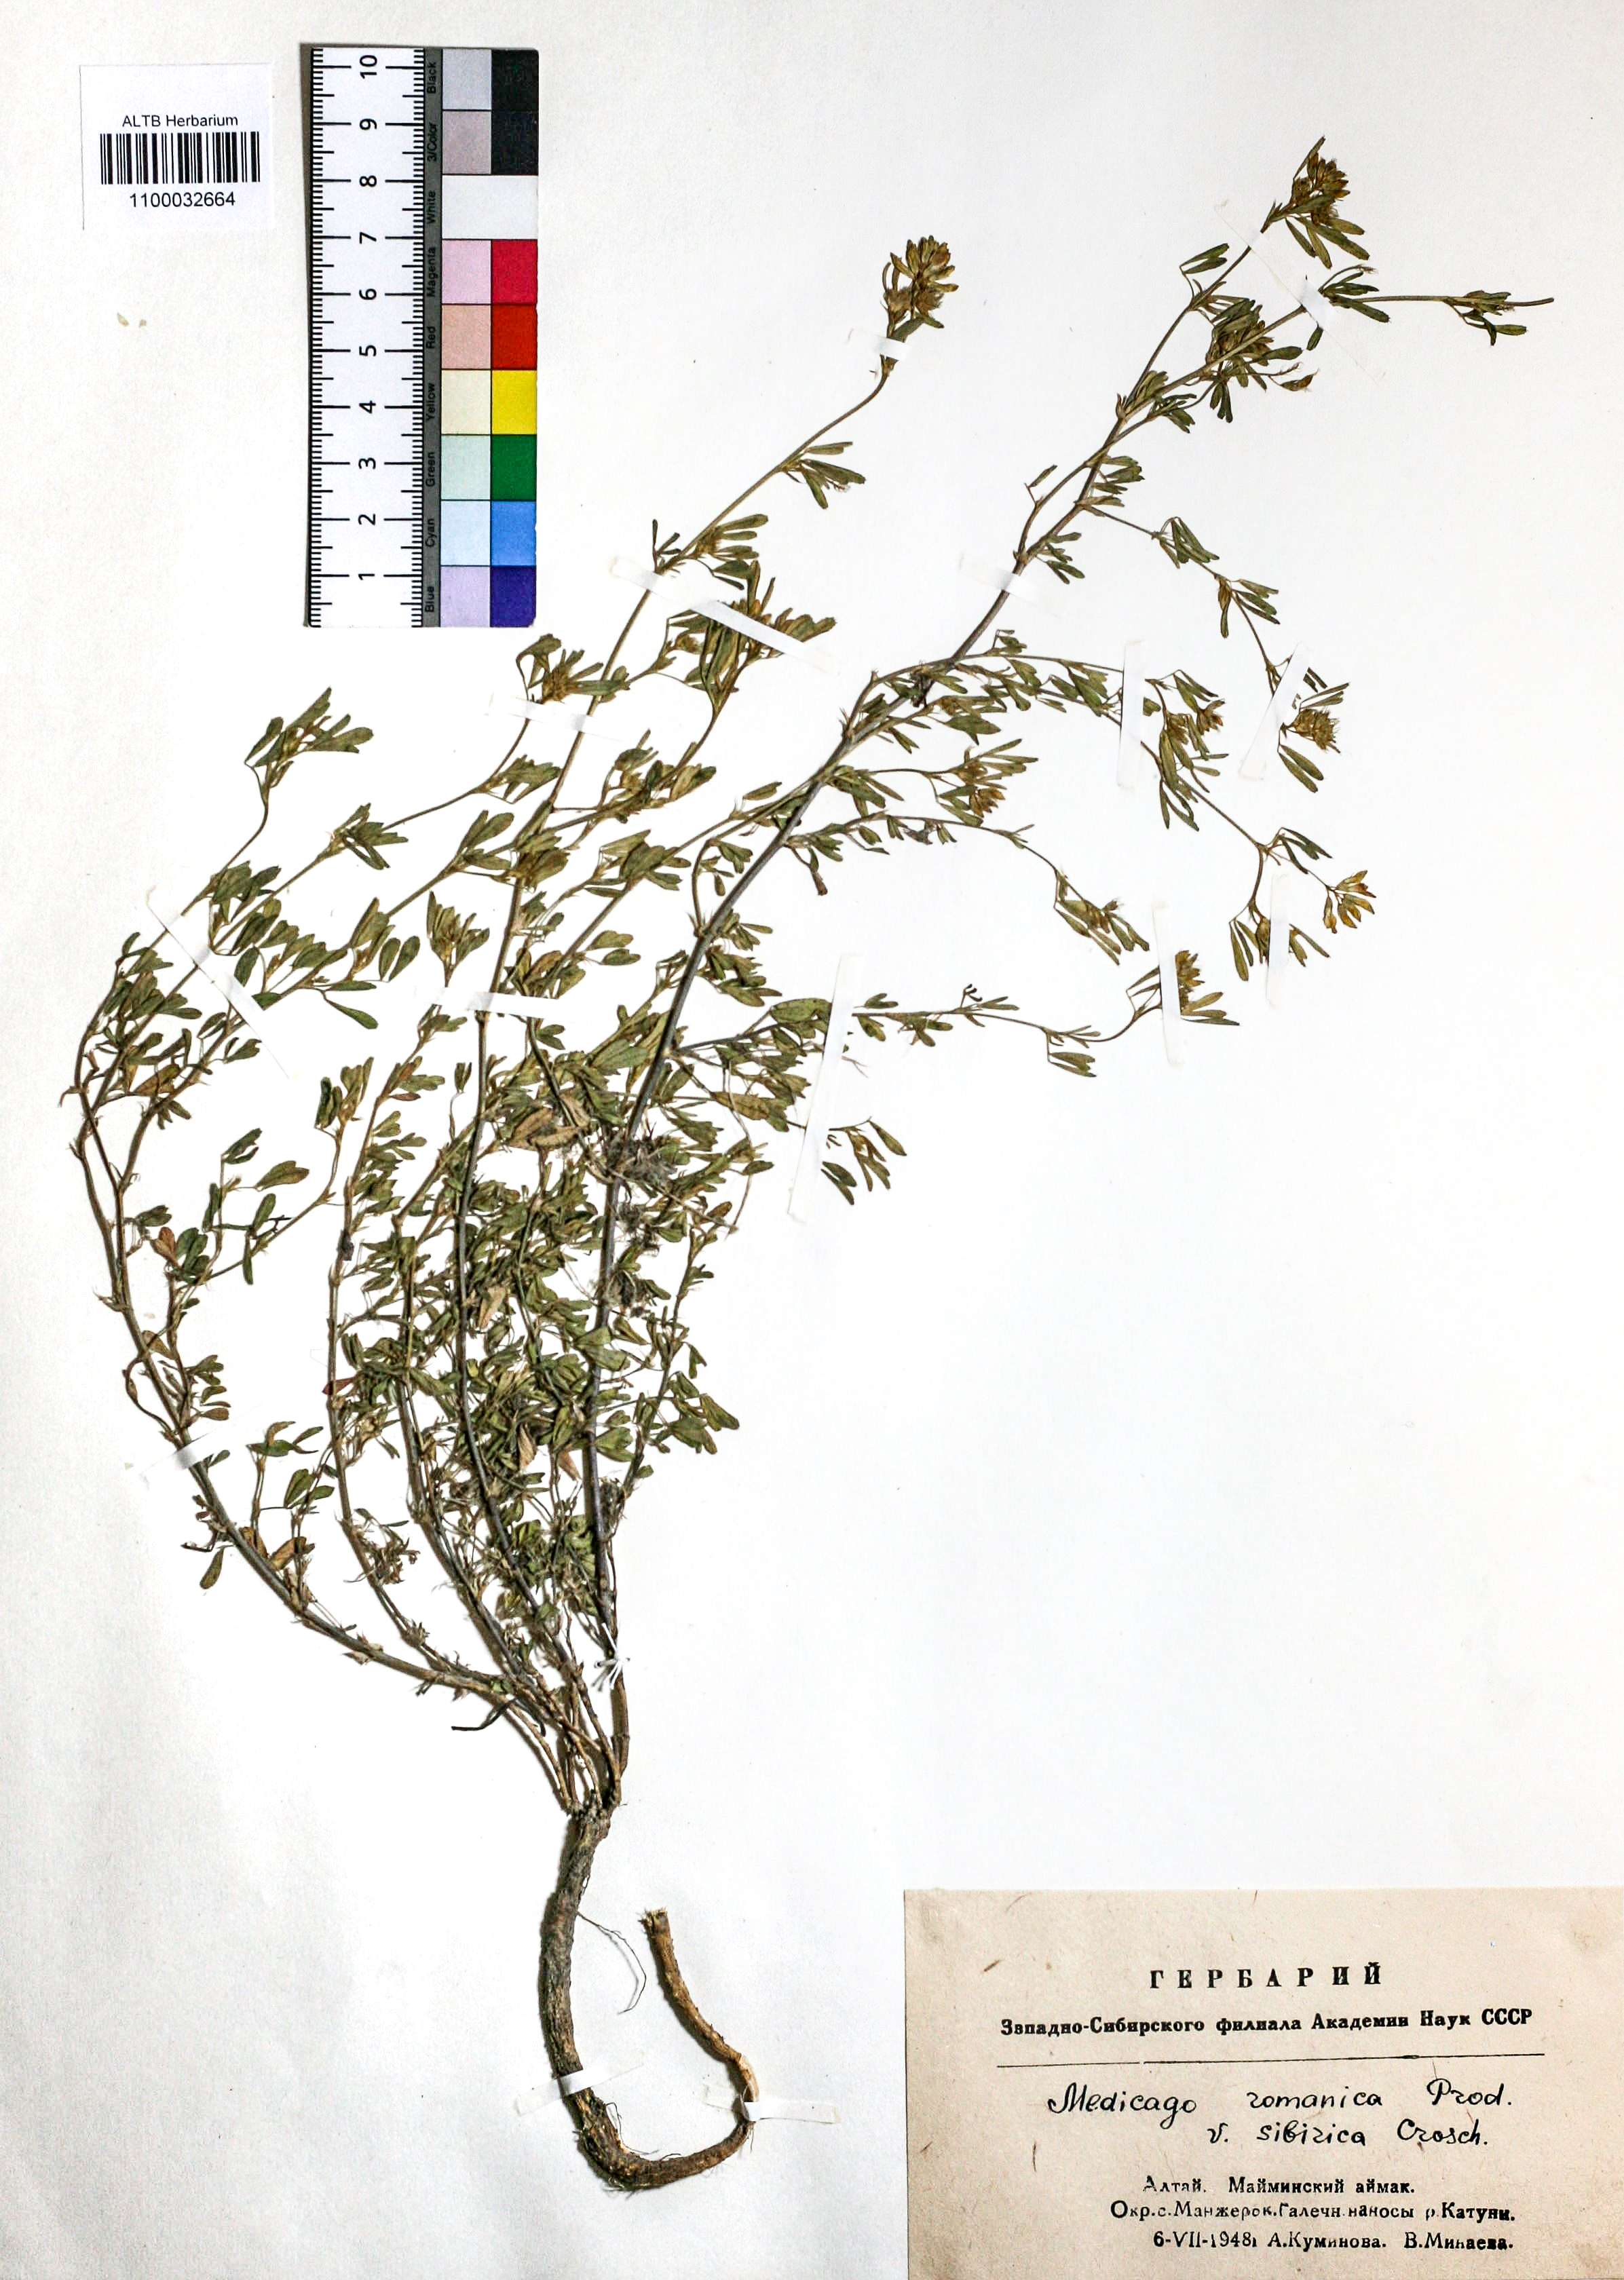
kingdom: Plantae
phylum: Tracheophyta
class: Magnoliopsida
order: Fabales
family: Fabaceae
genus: Medicago
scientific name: Medicago falcata
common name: Sickle medick
